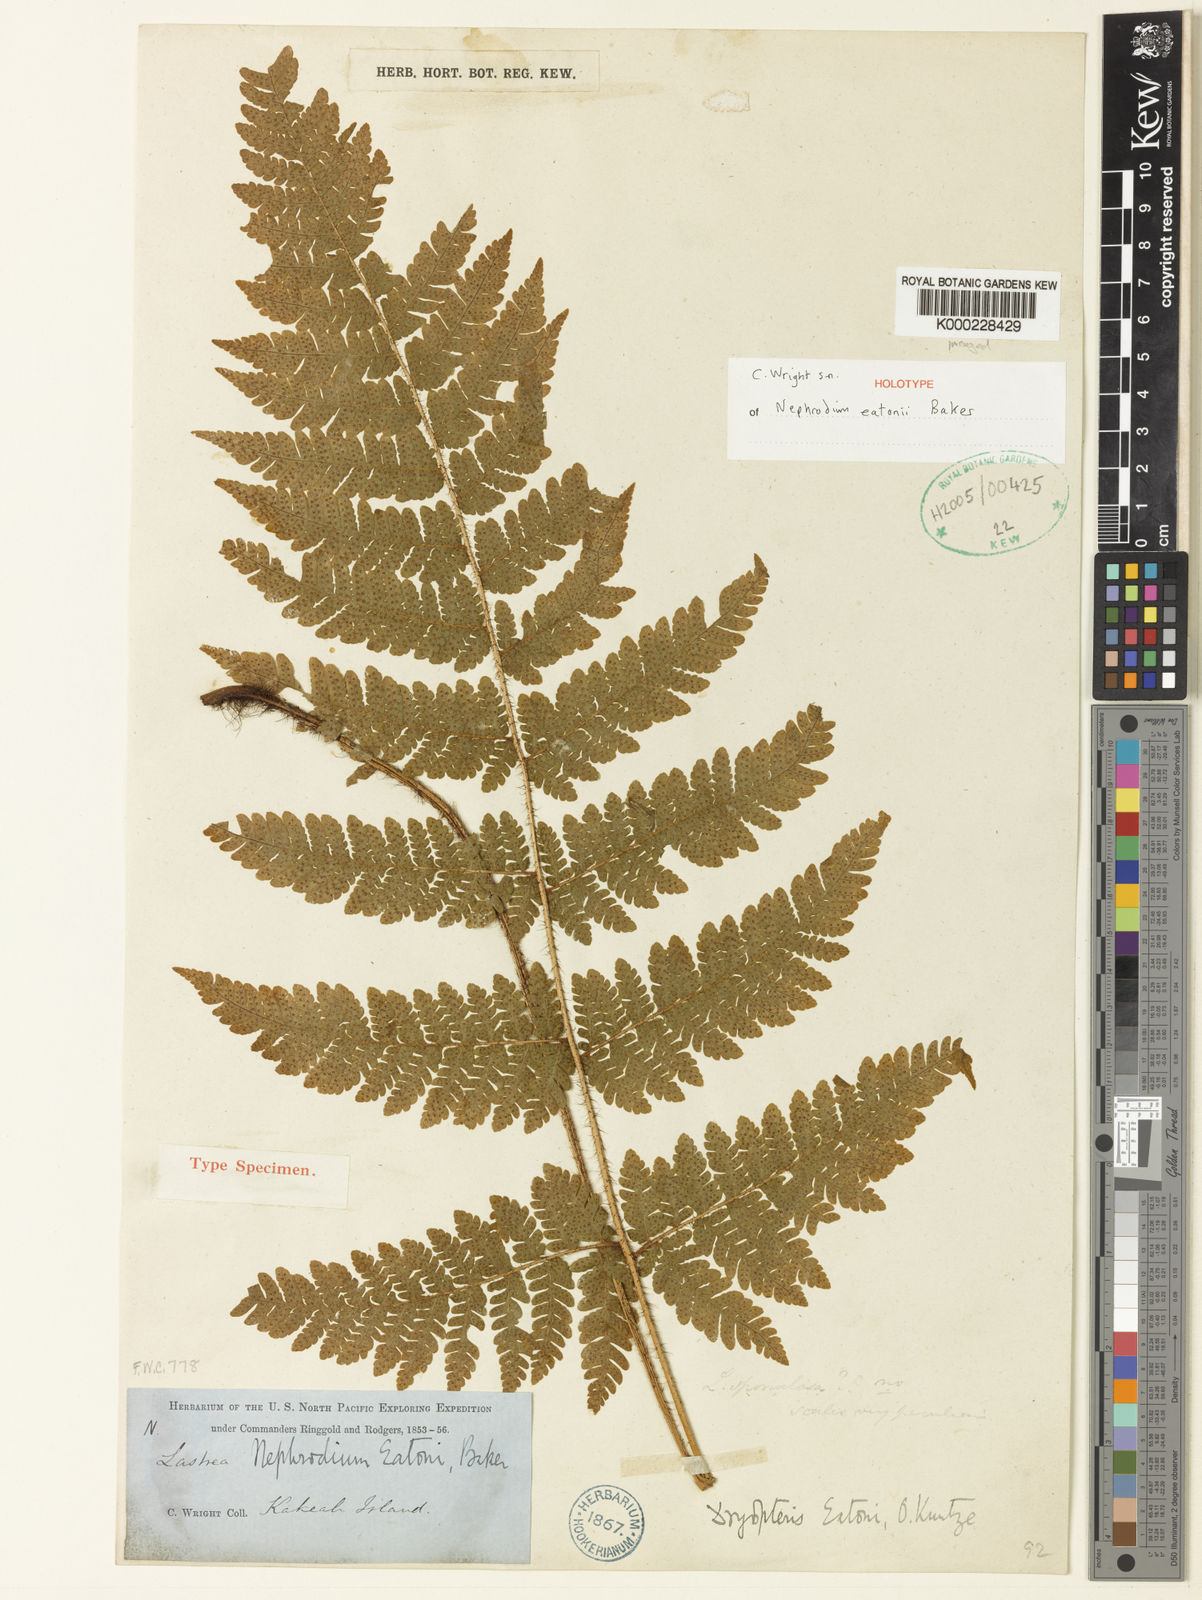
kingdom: Plantae
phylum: Tracheophyta
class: Polypodiopsida
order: Polypodiales
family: Dryopteridaceae
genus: Ctenitis
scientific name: Ctenitis eatonii
